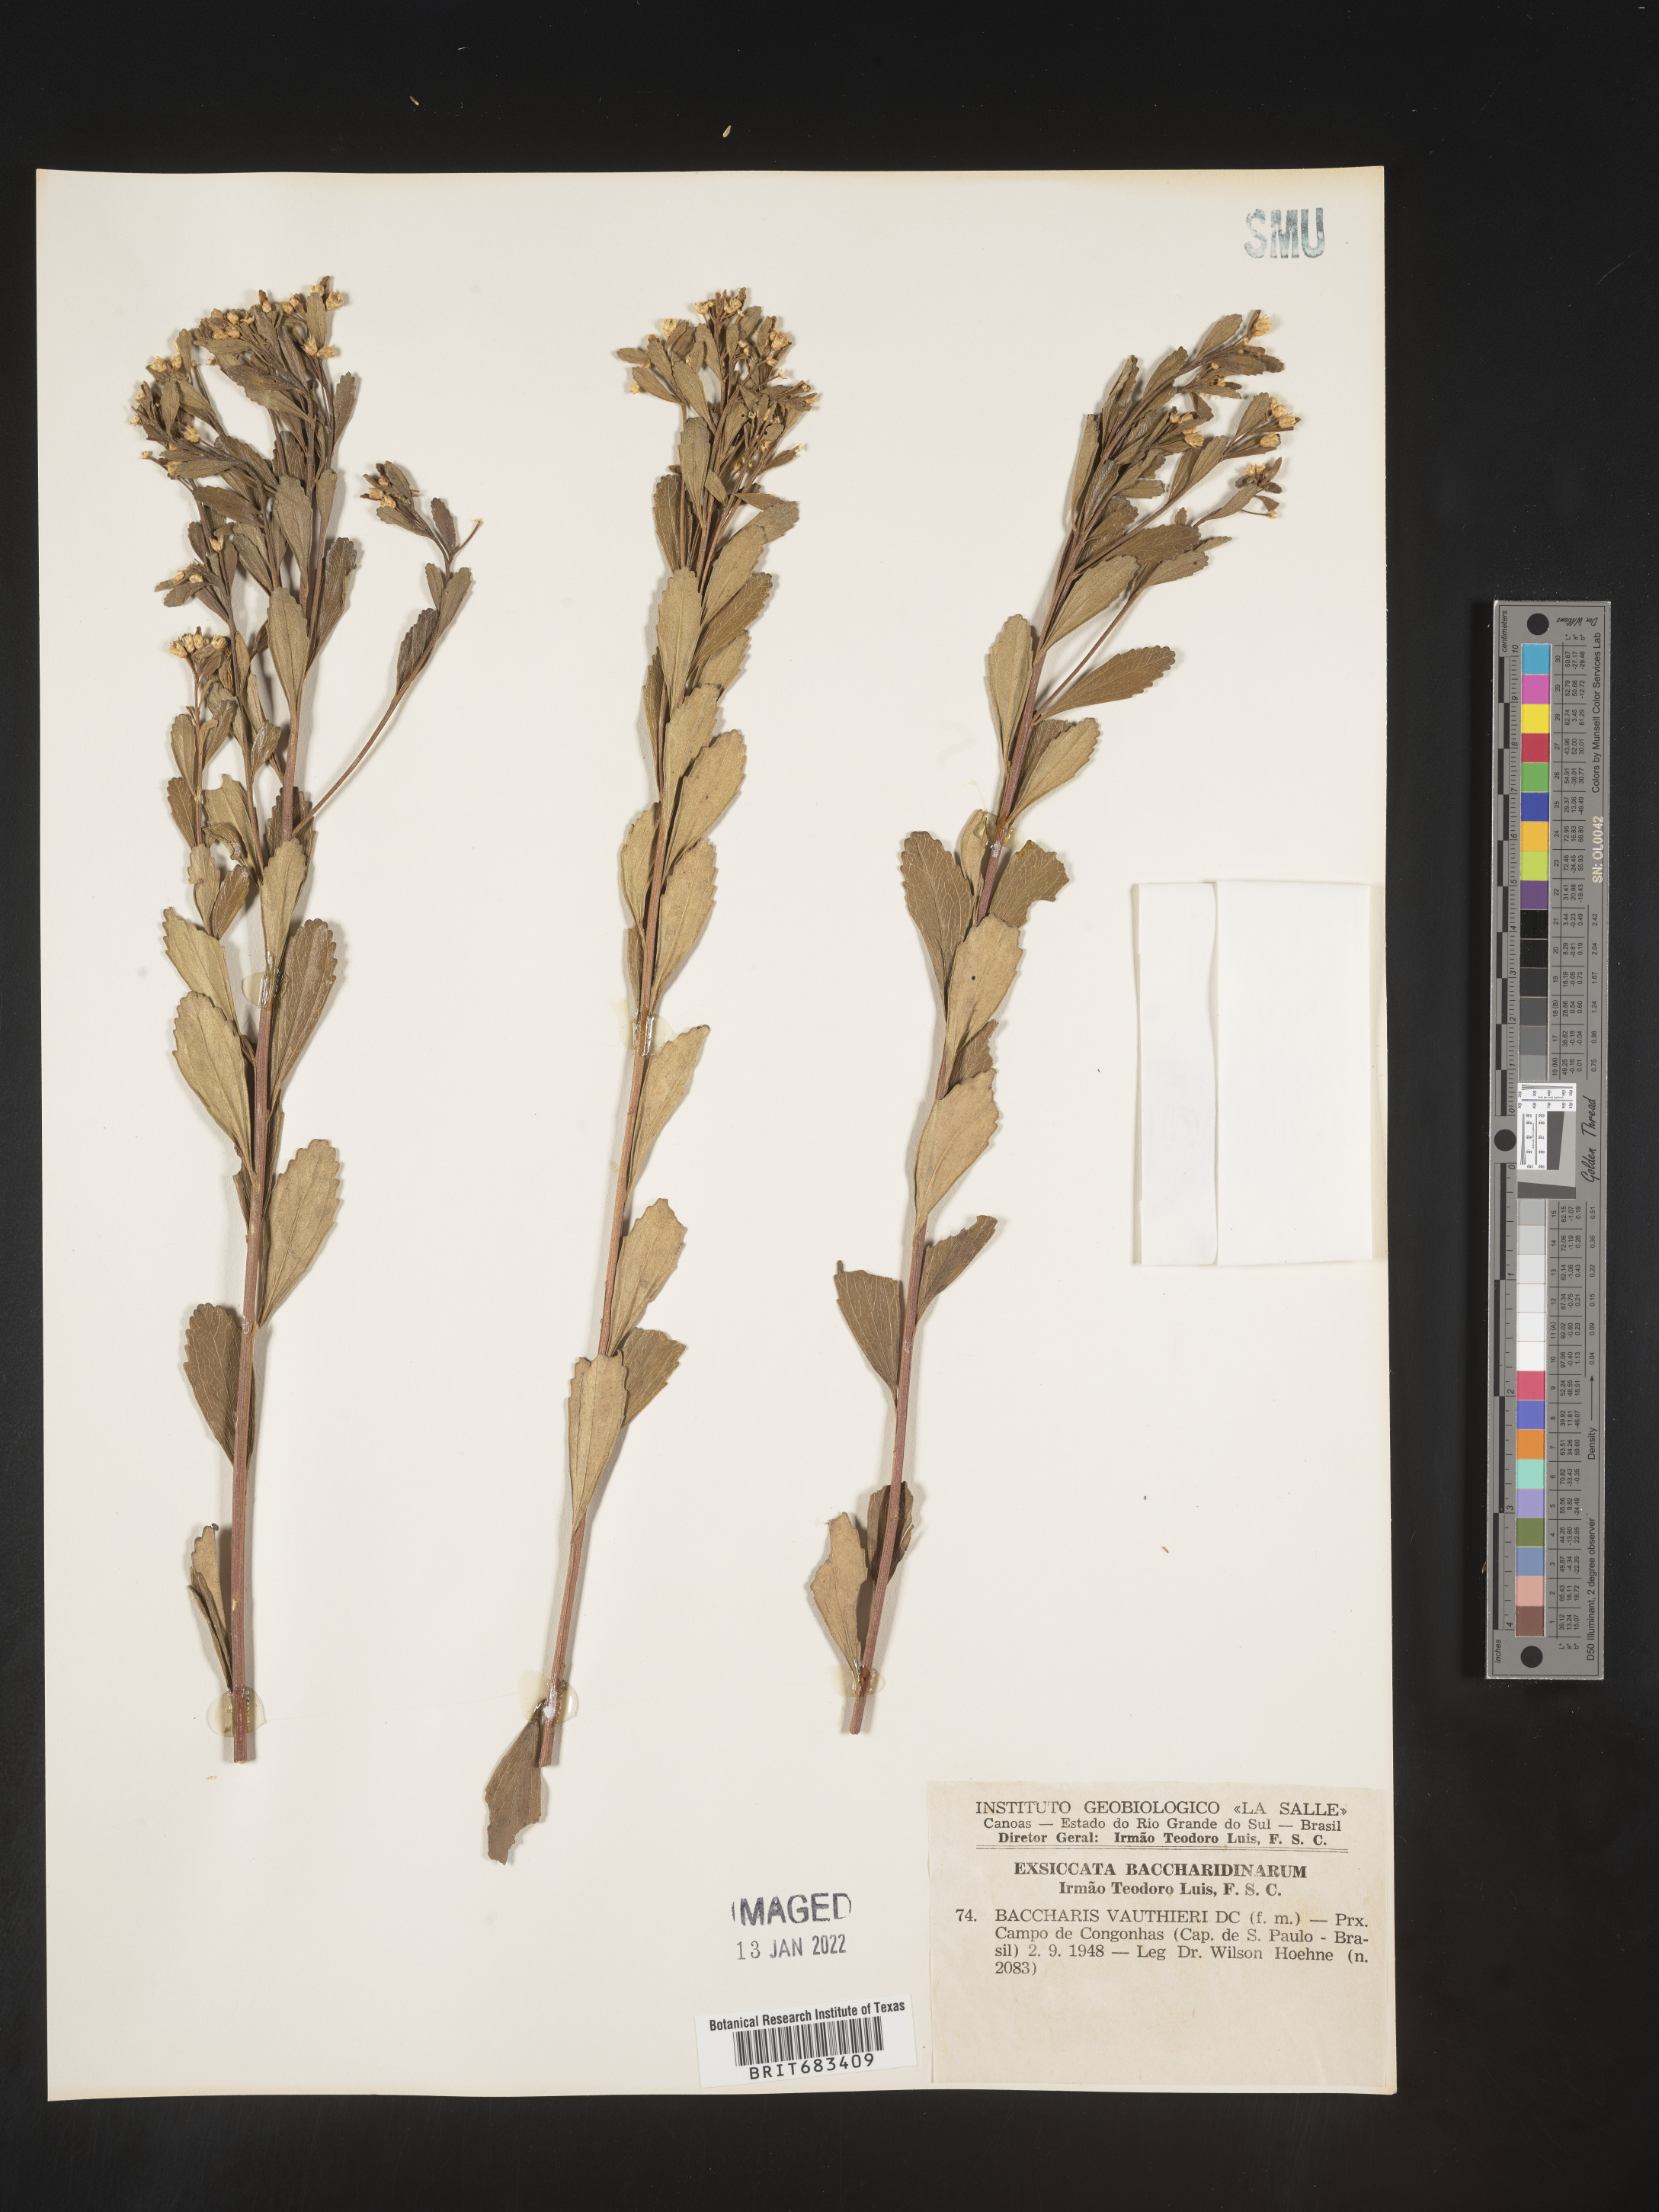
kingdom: Plantae
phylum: Tracheophyta
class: Magnoliopsida
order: Asterales
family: Asteraceae
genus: Baccharis
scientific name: Baccharis
